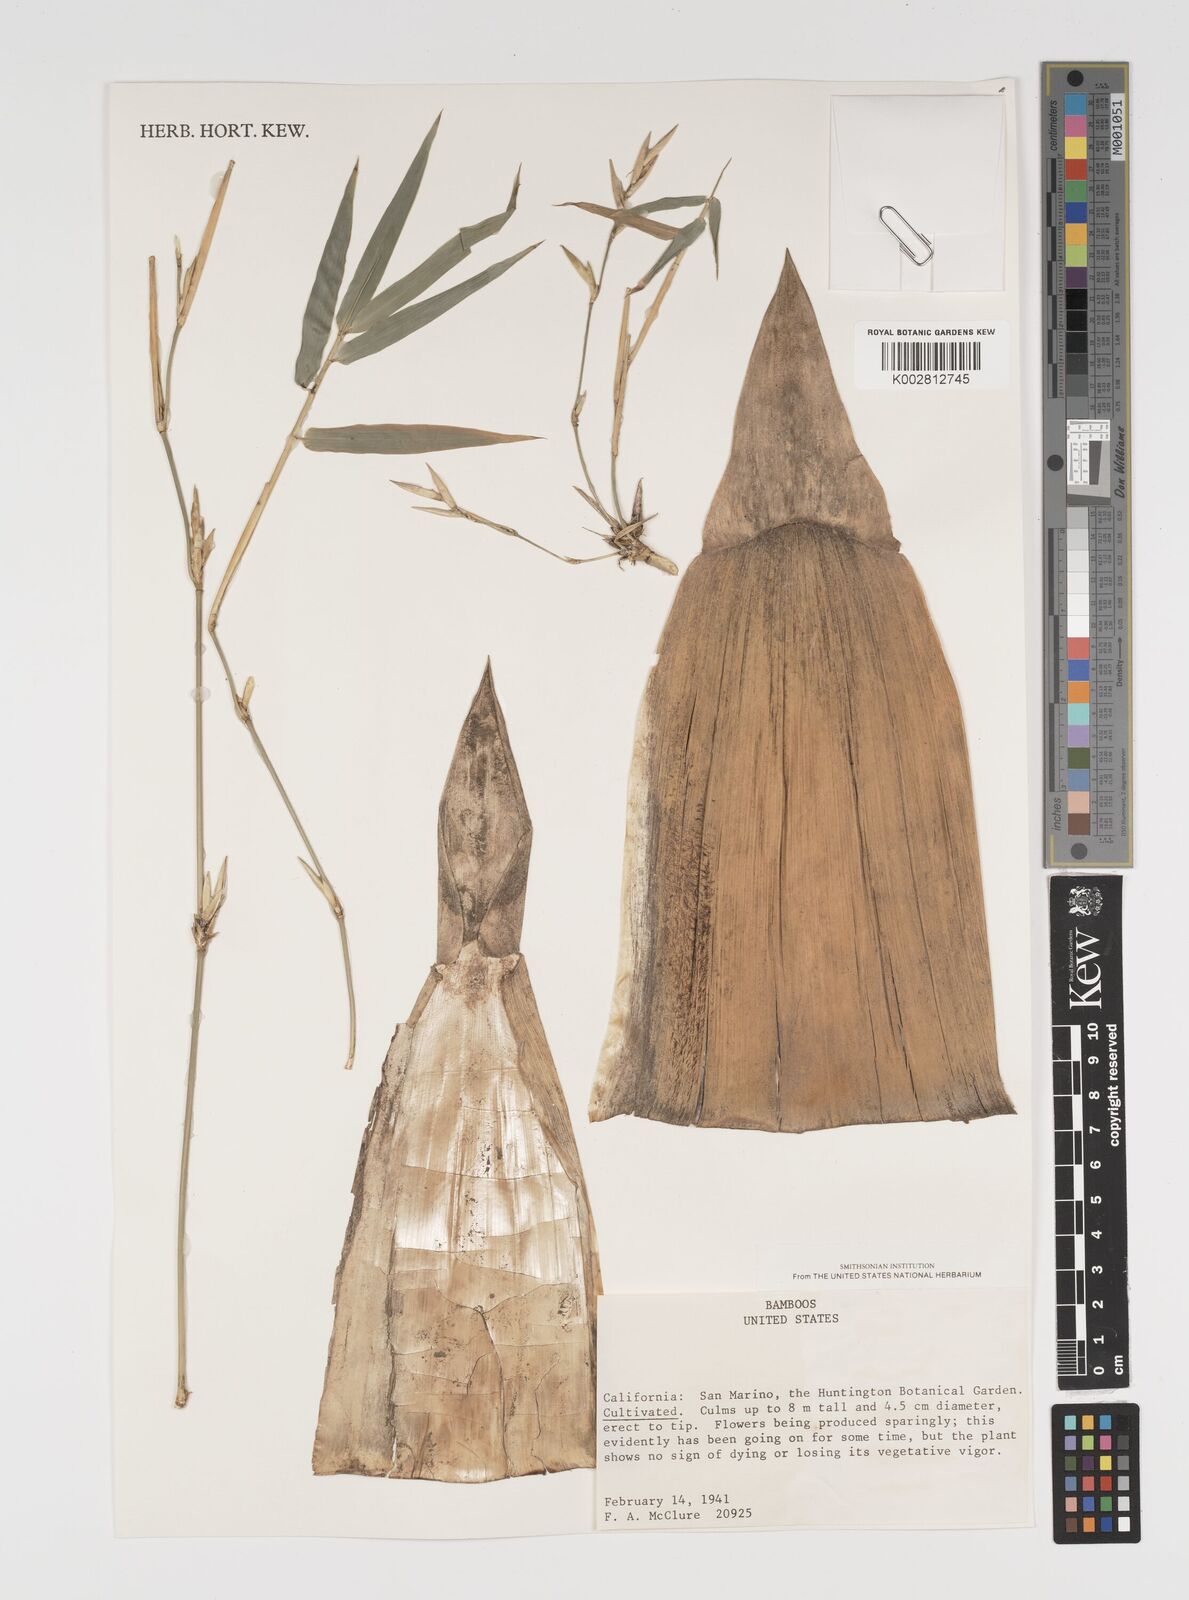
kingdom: Plantae
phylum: Tracheophyta
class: Liliopsida
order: Poales
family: Poaceae
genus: Arundinaria
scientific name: Arundinaria
